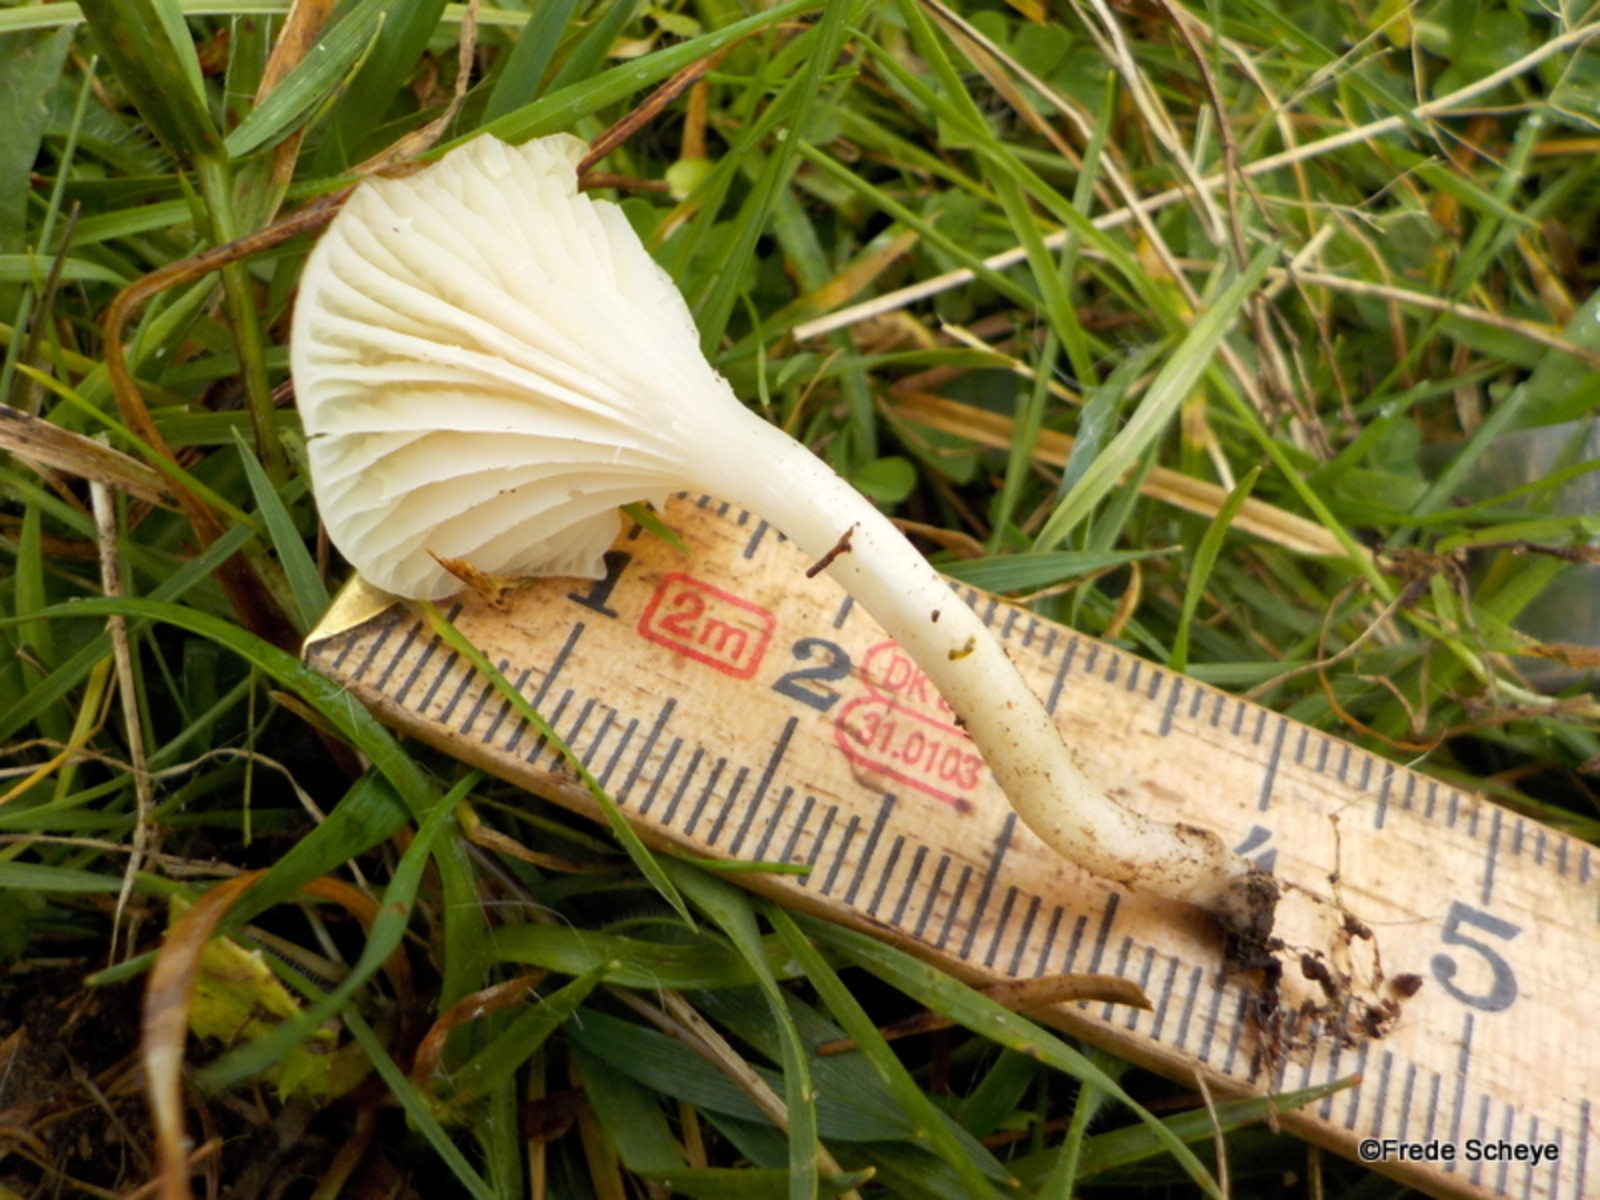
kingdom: Fungi
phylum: Basidiomycota
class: Agaricomycetes
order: Agaricales
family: Hygrophoraceae
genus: Cuphophyllus
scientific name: Cuphophyllus virgineus
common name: snehvid vokshat
